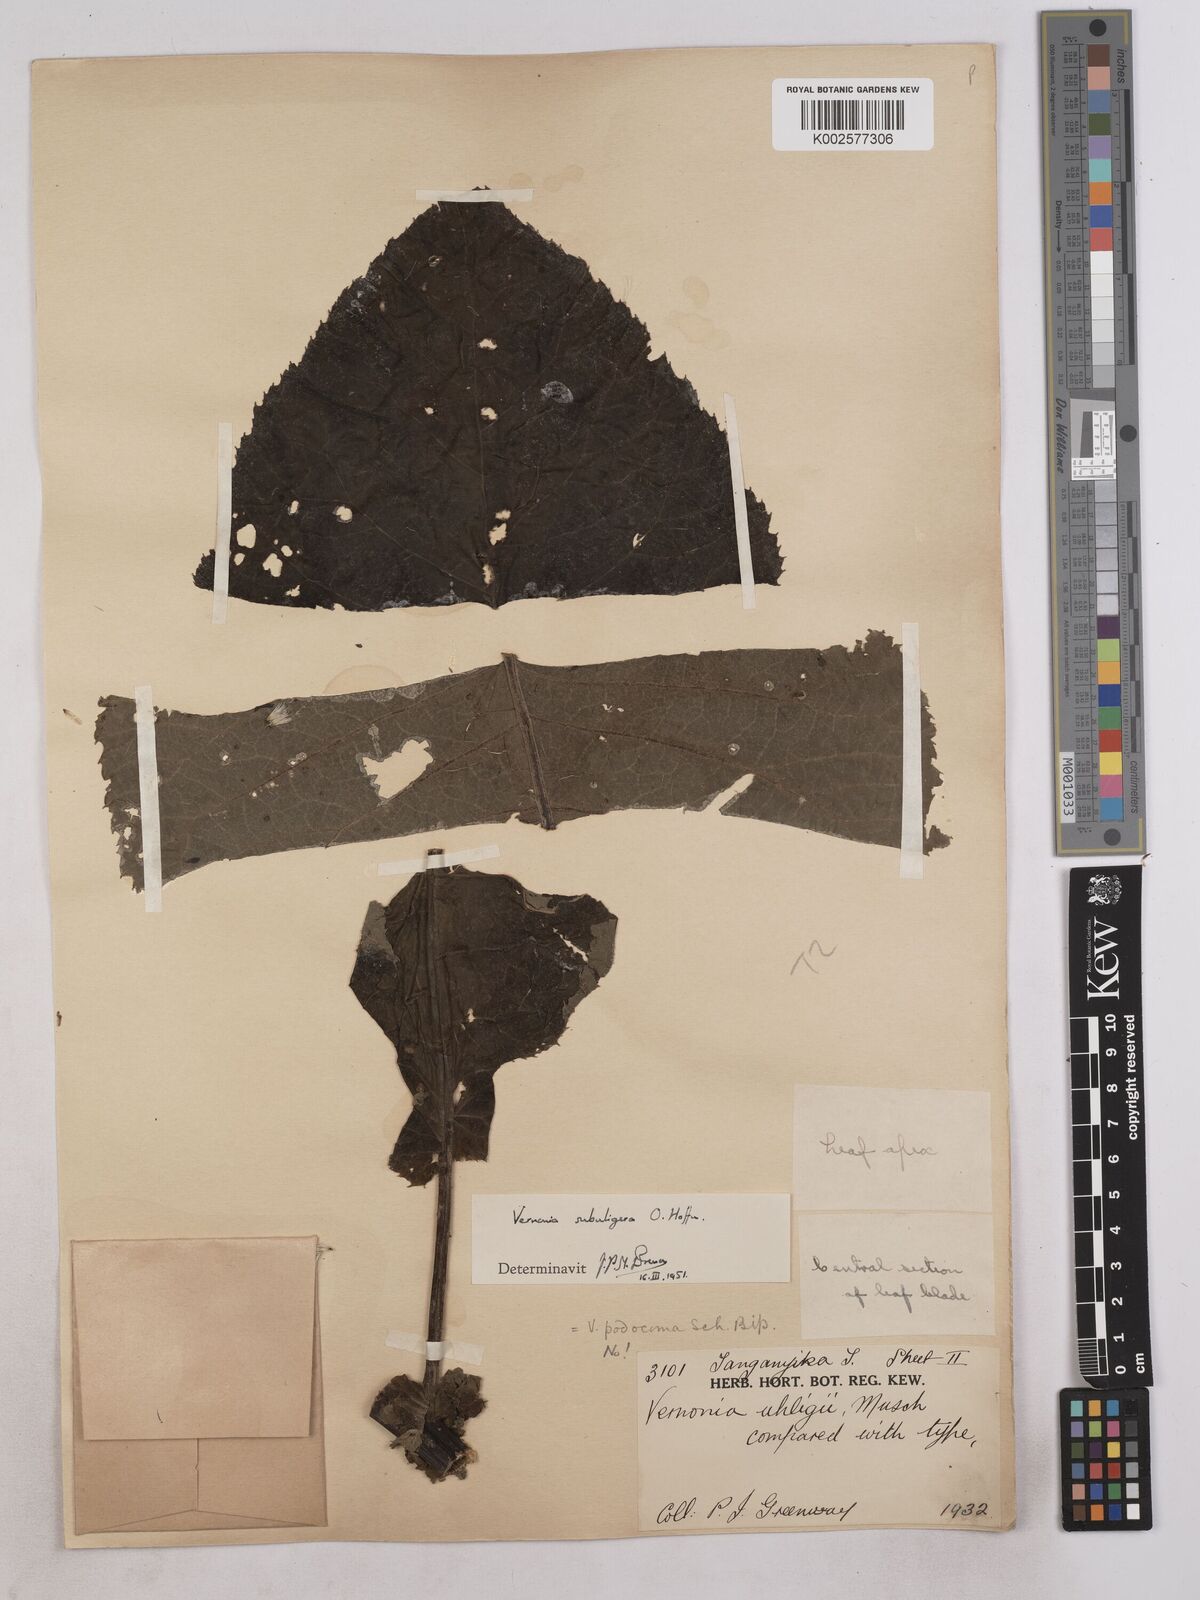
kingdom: Plantae
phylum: Tracheophyta
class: Magnoliopsida
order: Asterales
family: Asteraceae
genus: Gymnanthemum
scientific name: Gymnanthemum myrianthum
